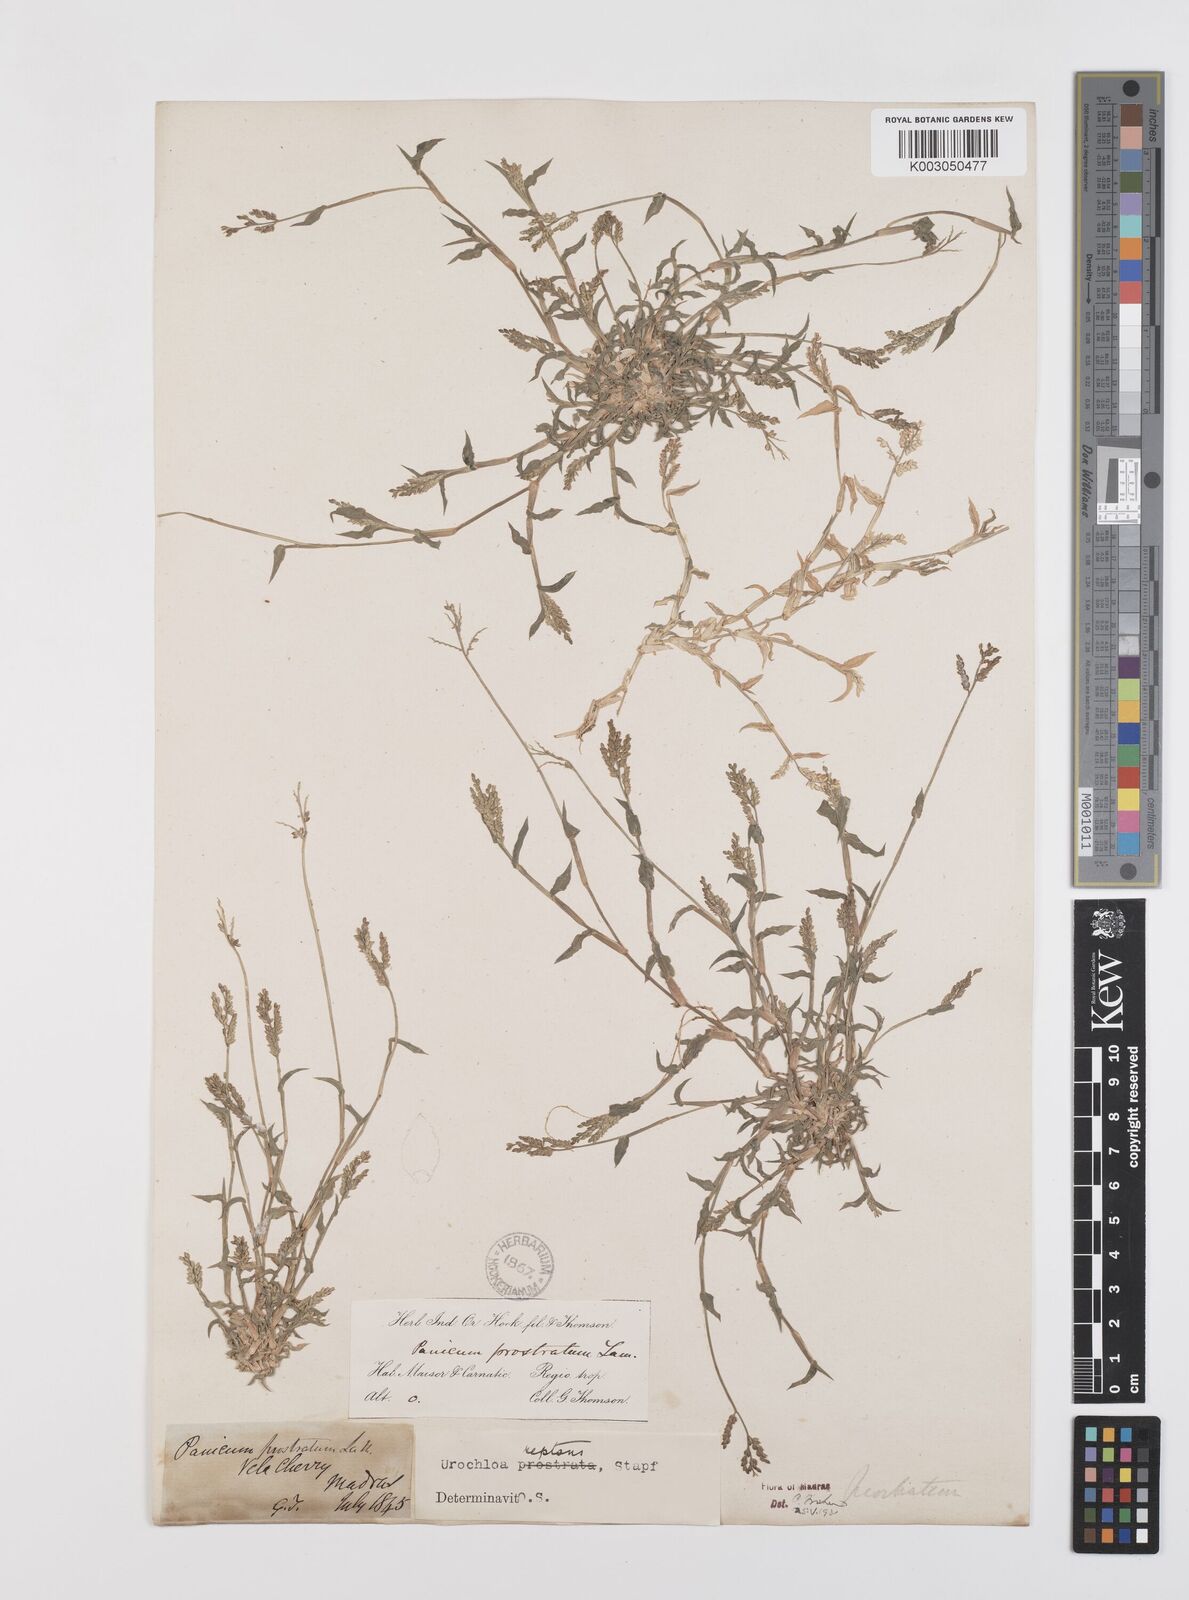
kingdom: Plantae
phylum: Tracheophyta
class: Liliopsida
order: Poales
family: Poaceae
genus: Urochloa
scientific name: Urochloa reptans
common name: Sprawling signalgrass
